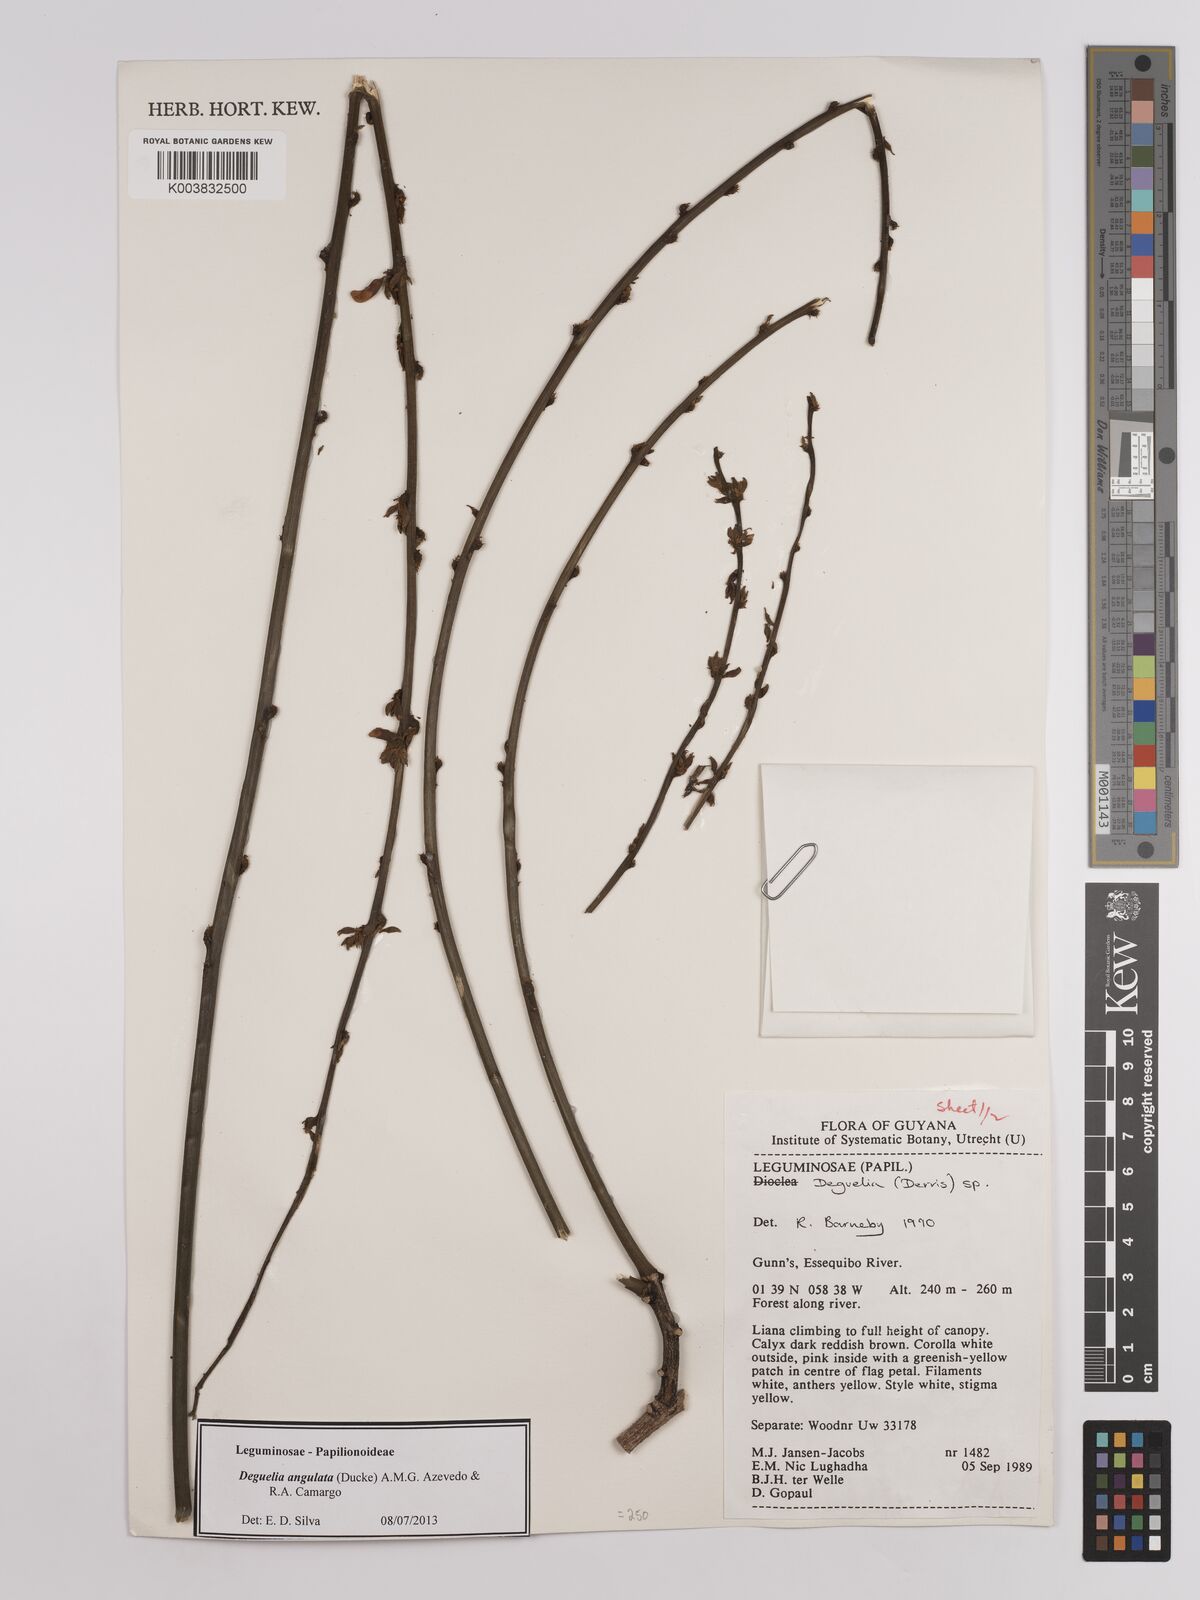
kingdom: Plantae
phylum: Tracheophyta
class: Magnoliopsida
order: Fabales
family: Fabaceae
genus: Deguelia
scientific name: Deguelia angulata
